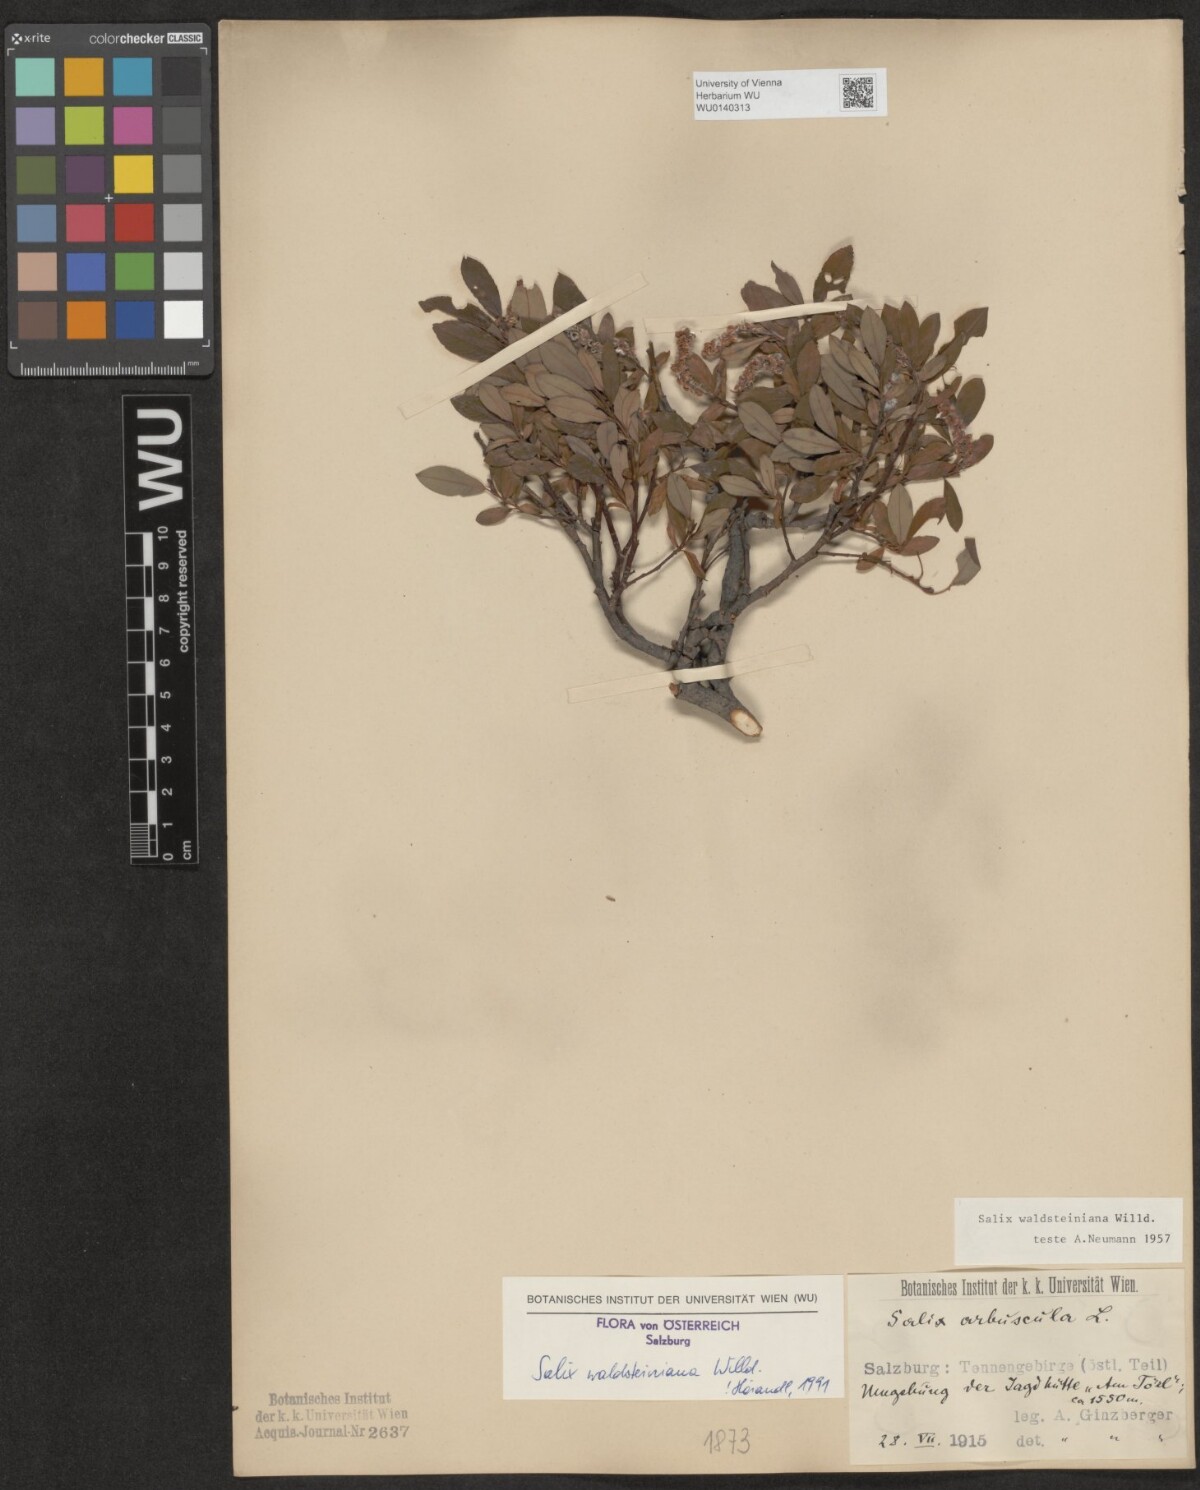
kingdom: Plantae
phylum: Tracheophyta
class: Magnoliopsida
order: Malpighiales
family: Salicaceae
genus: Salix
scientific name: Salix waldsteiniana
